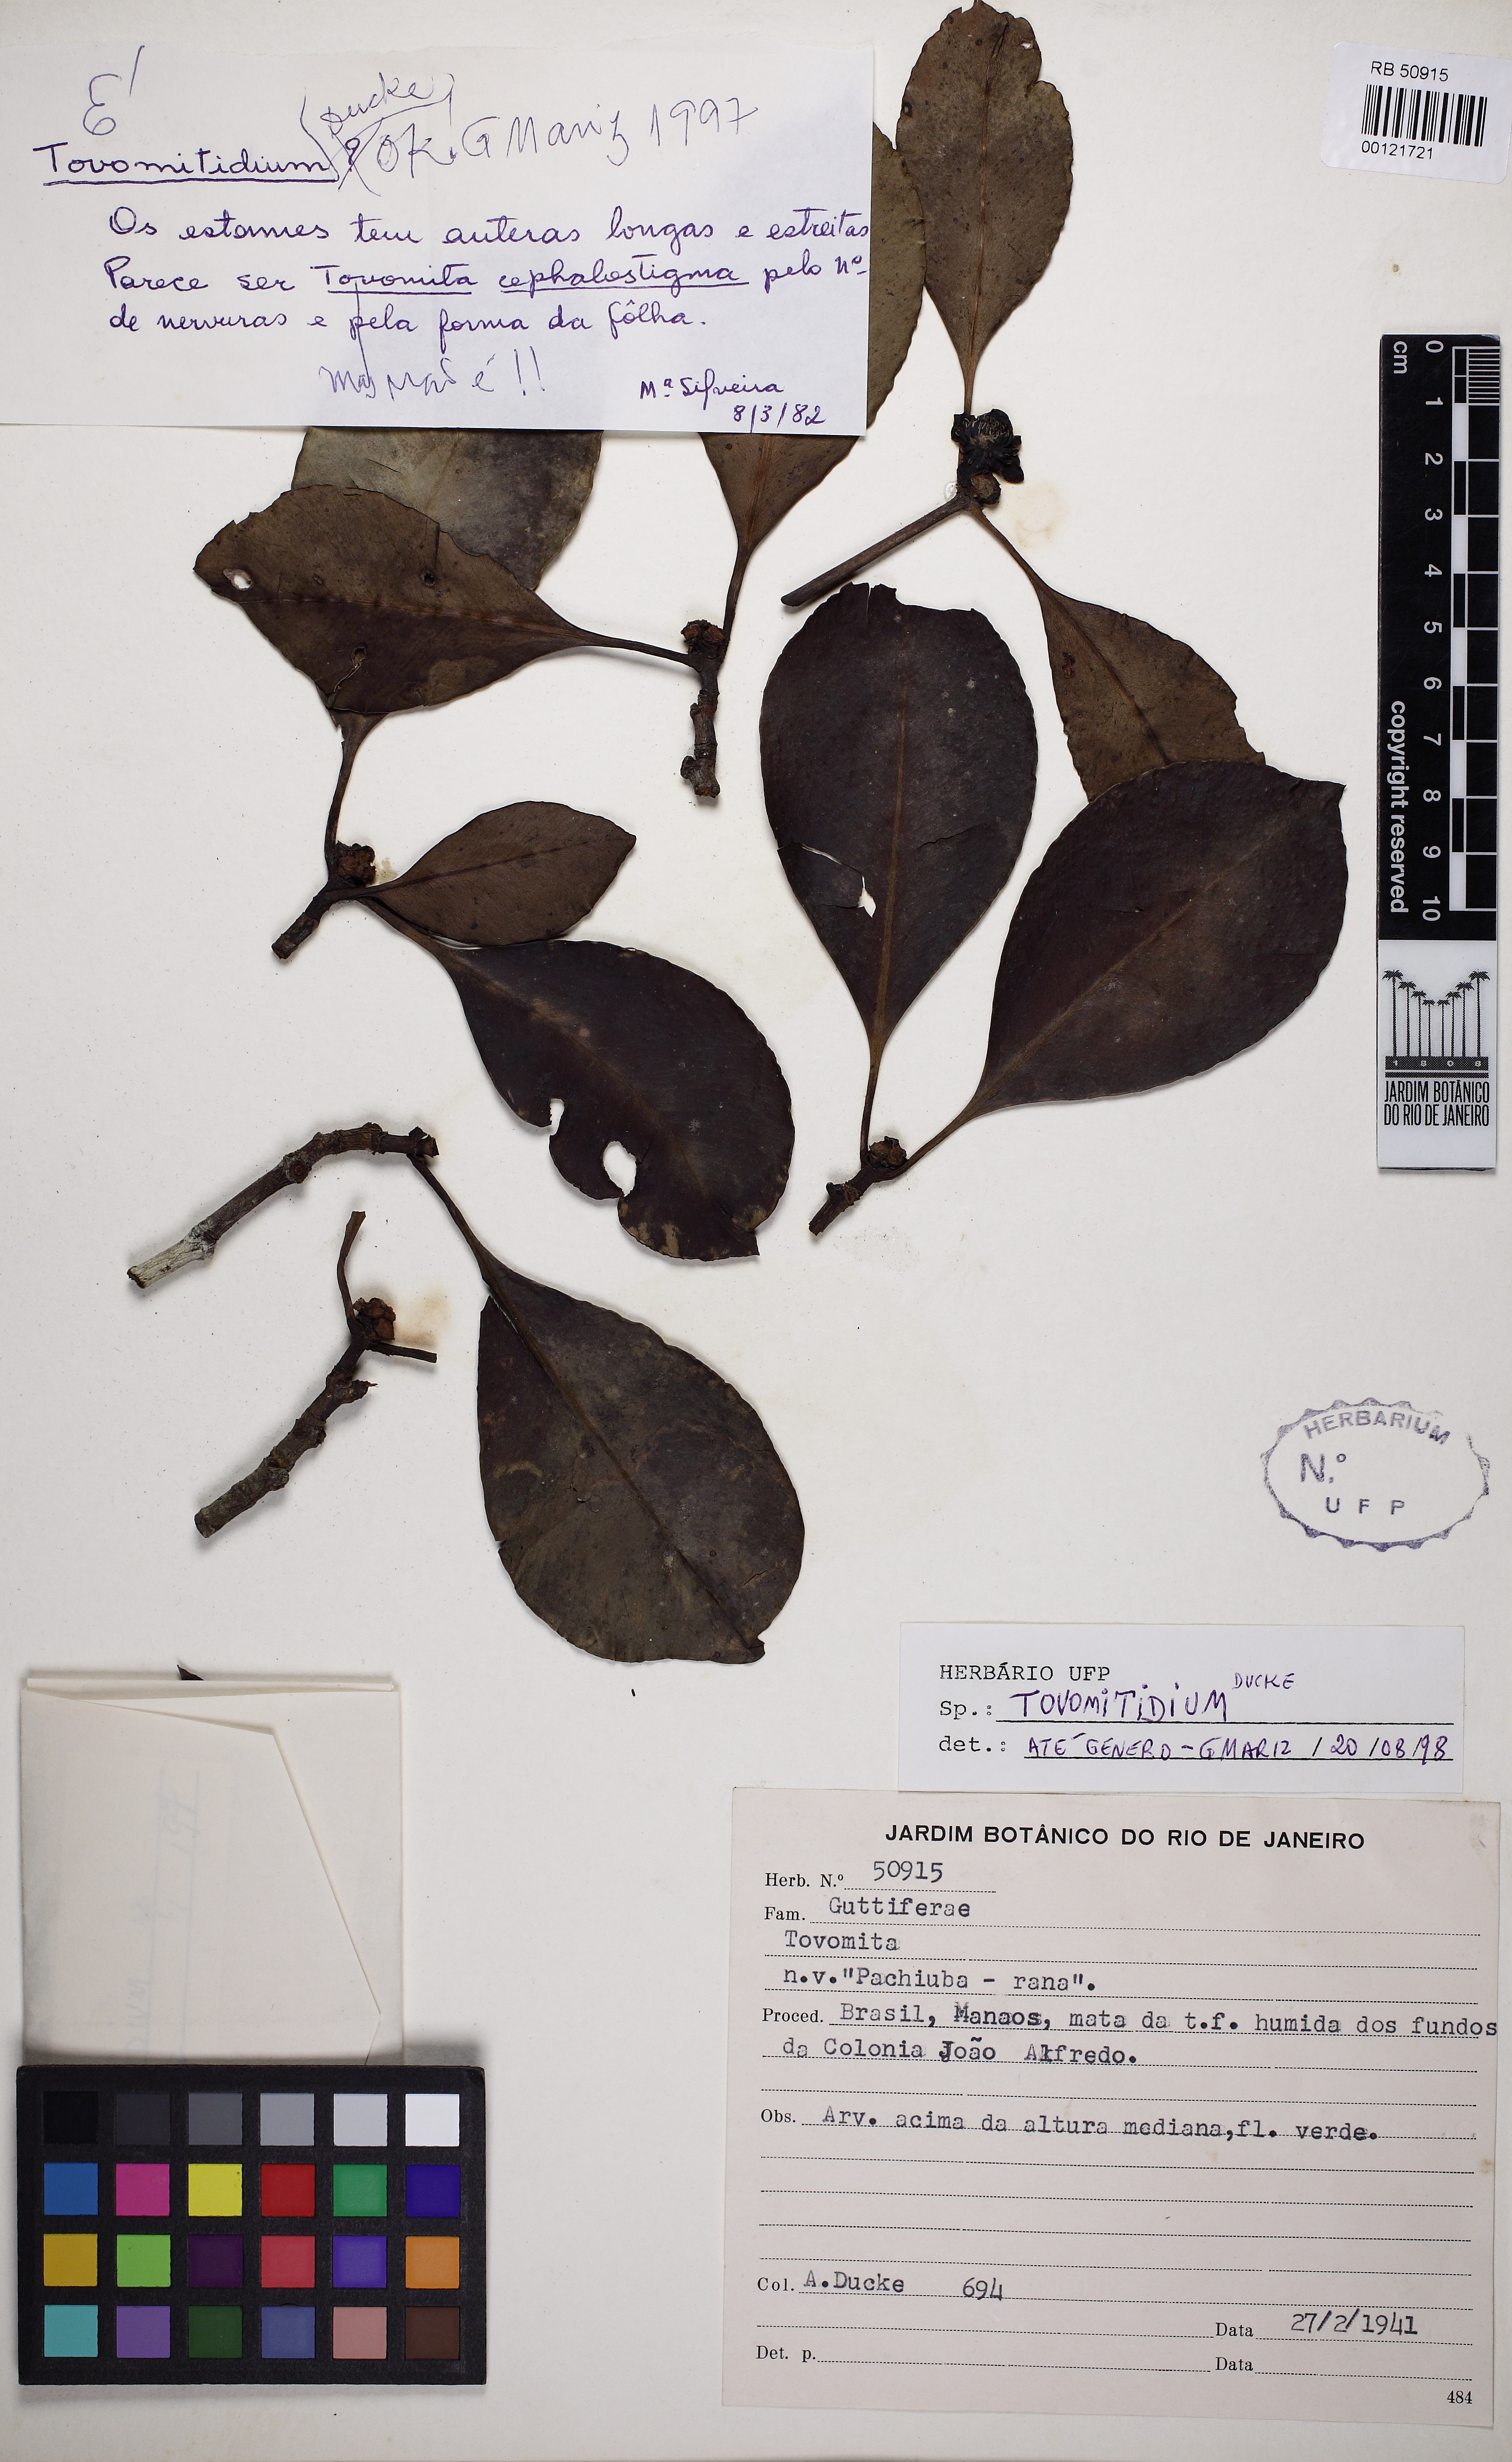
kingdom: Plantae
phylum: Tracheophyta
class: Magnoliopsida
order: Malpighiales
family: Clusiaceae
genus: Tovomita
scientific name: Tovomita caloneura
